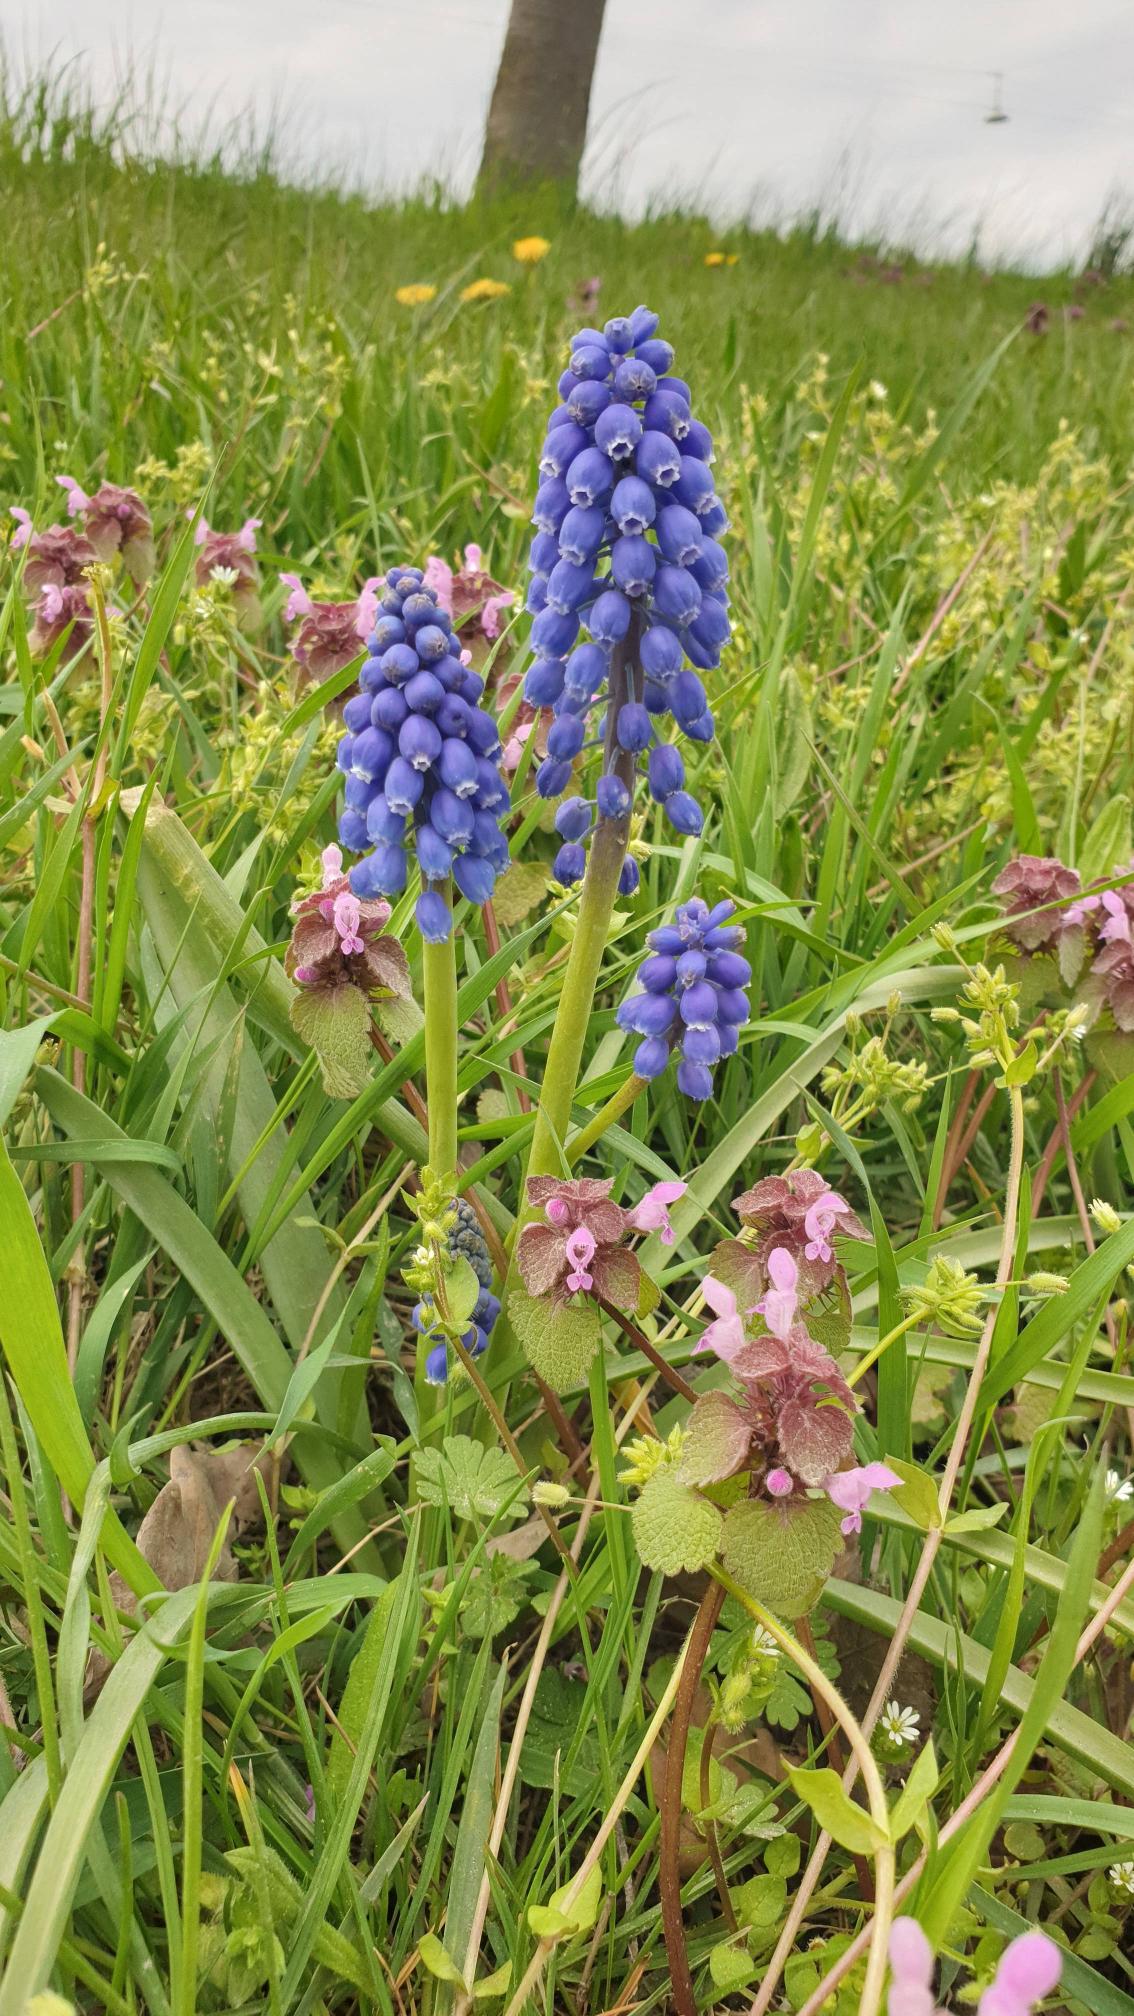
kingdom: Plantae
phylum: Tracheophyta
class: Liliopsida
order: Asparagales
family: Asparagaceae
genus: Muscari
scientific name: Muscari armeniacum
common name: Armensk perlehyacint
